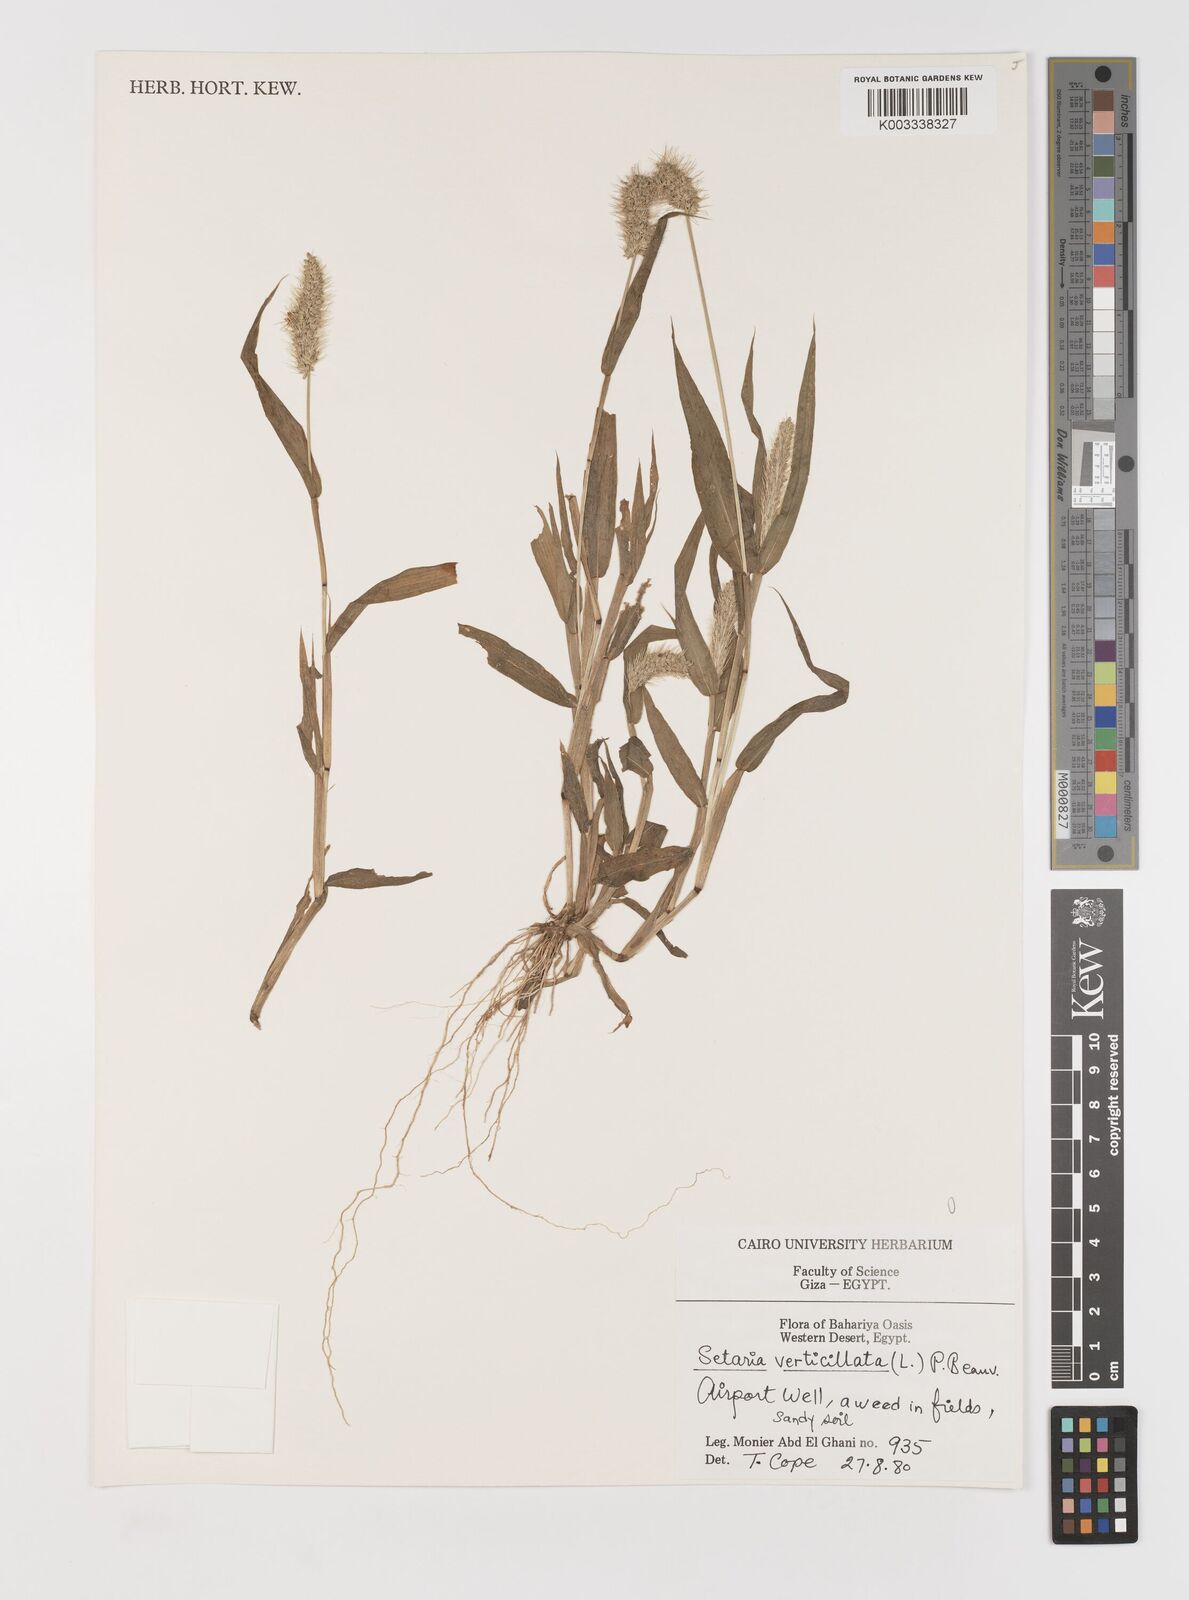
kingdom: Plantae
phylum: Tracheophyta
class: Liliopsida
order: Poales
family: Poaceae
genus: Setaria
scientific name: Setaria verticillata
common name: Hooked bristlegrass
